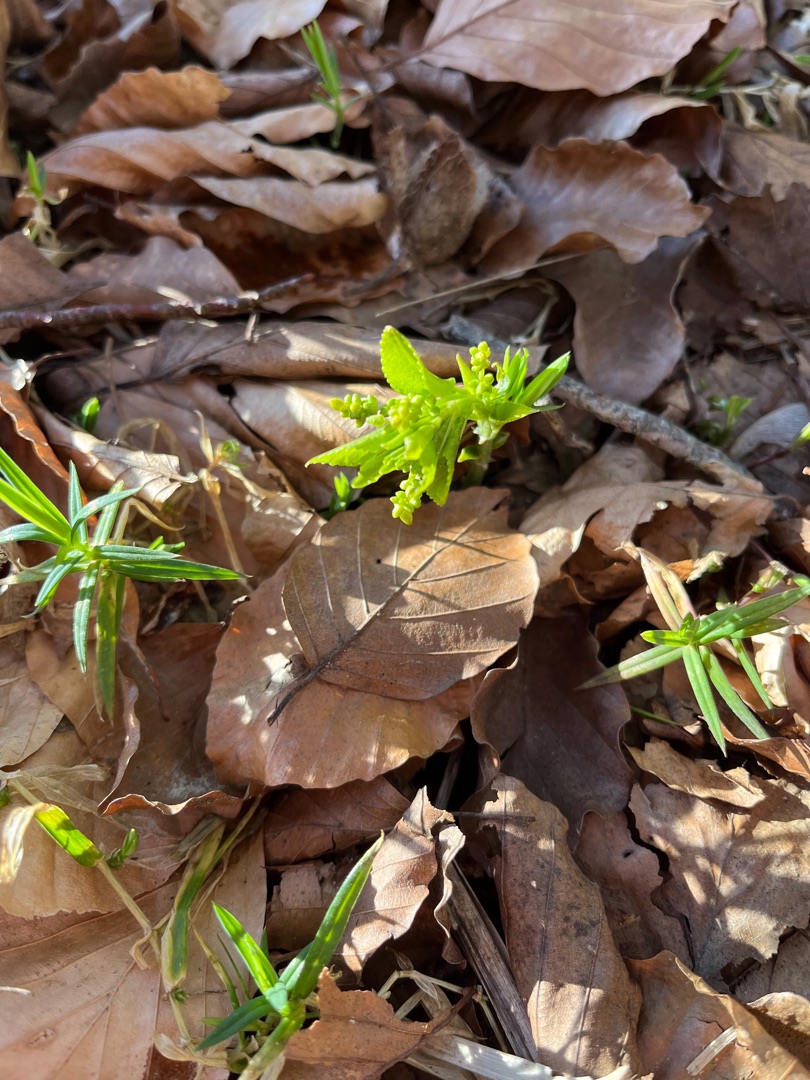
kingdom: Plantae
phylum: Tracheophyta
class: Magnoliopsida
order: Malpighiales
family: Euphorbiaceae
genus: Mercurialis
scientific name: Mercurialis perennis
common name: Almindelig bingelurt
